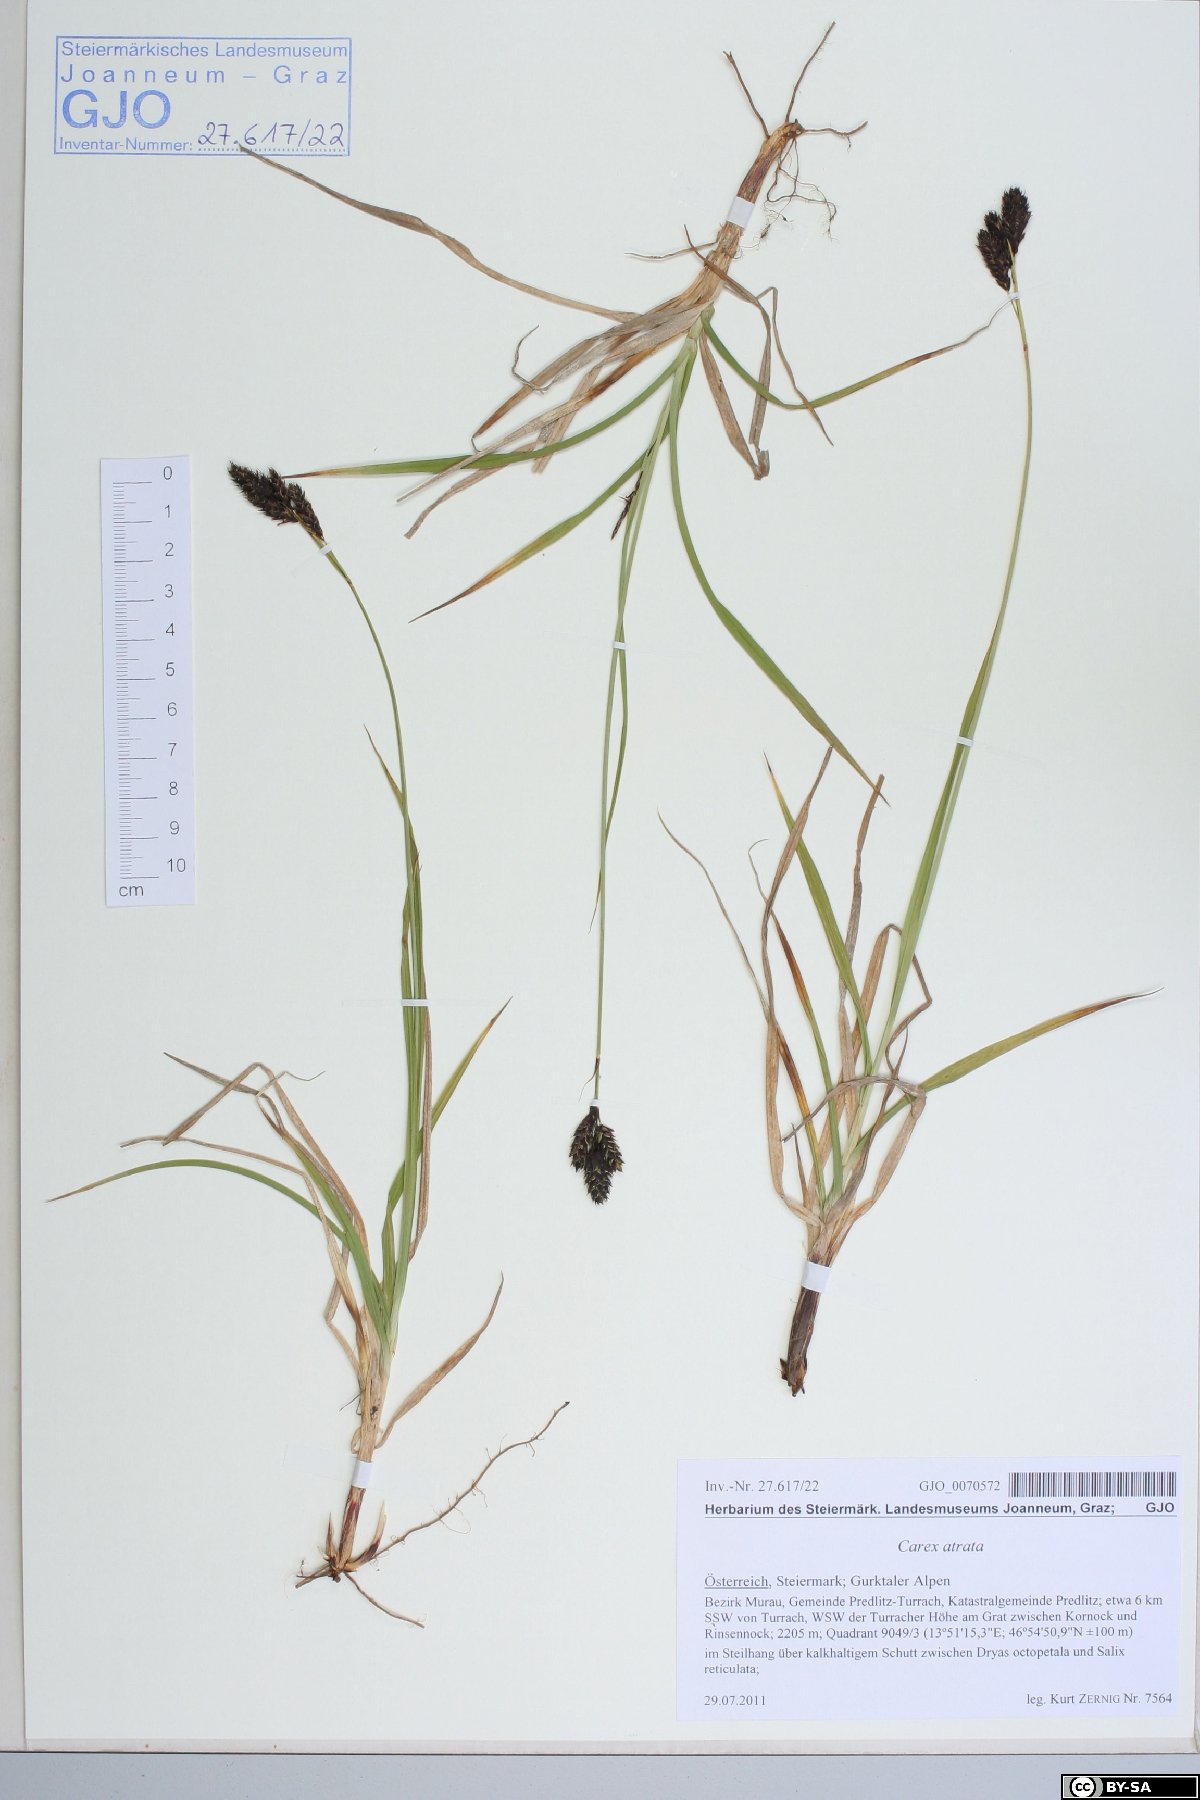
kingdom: Plantae
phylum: Tracheophyta
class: Liliopsida
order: Poales
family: Cyperaceae
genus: Carex
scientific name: Carex atrata
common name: Black alpine sedge
